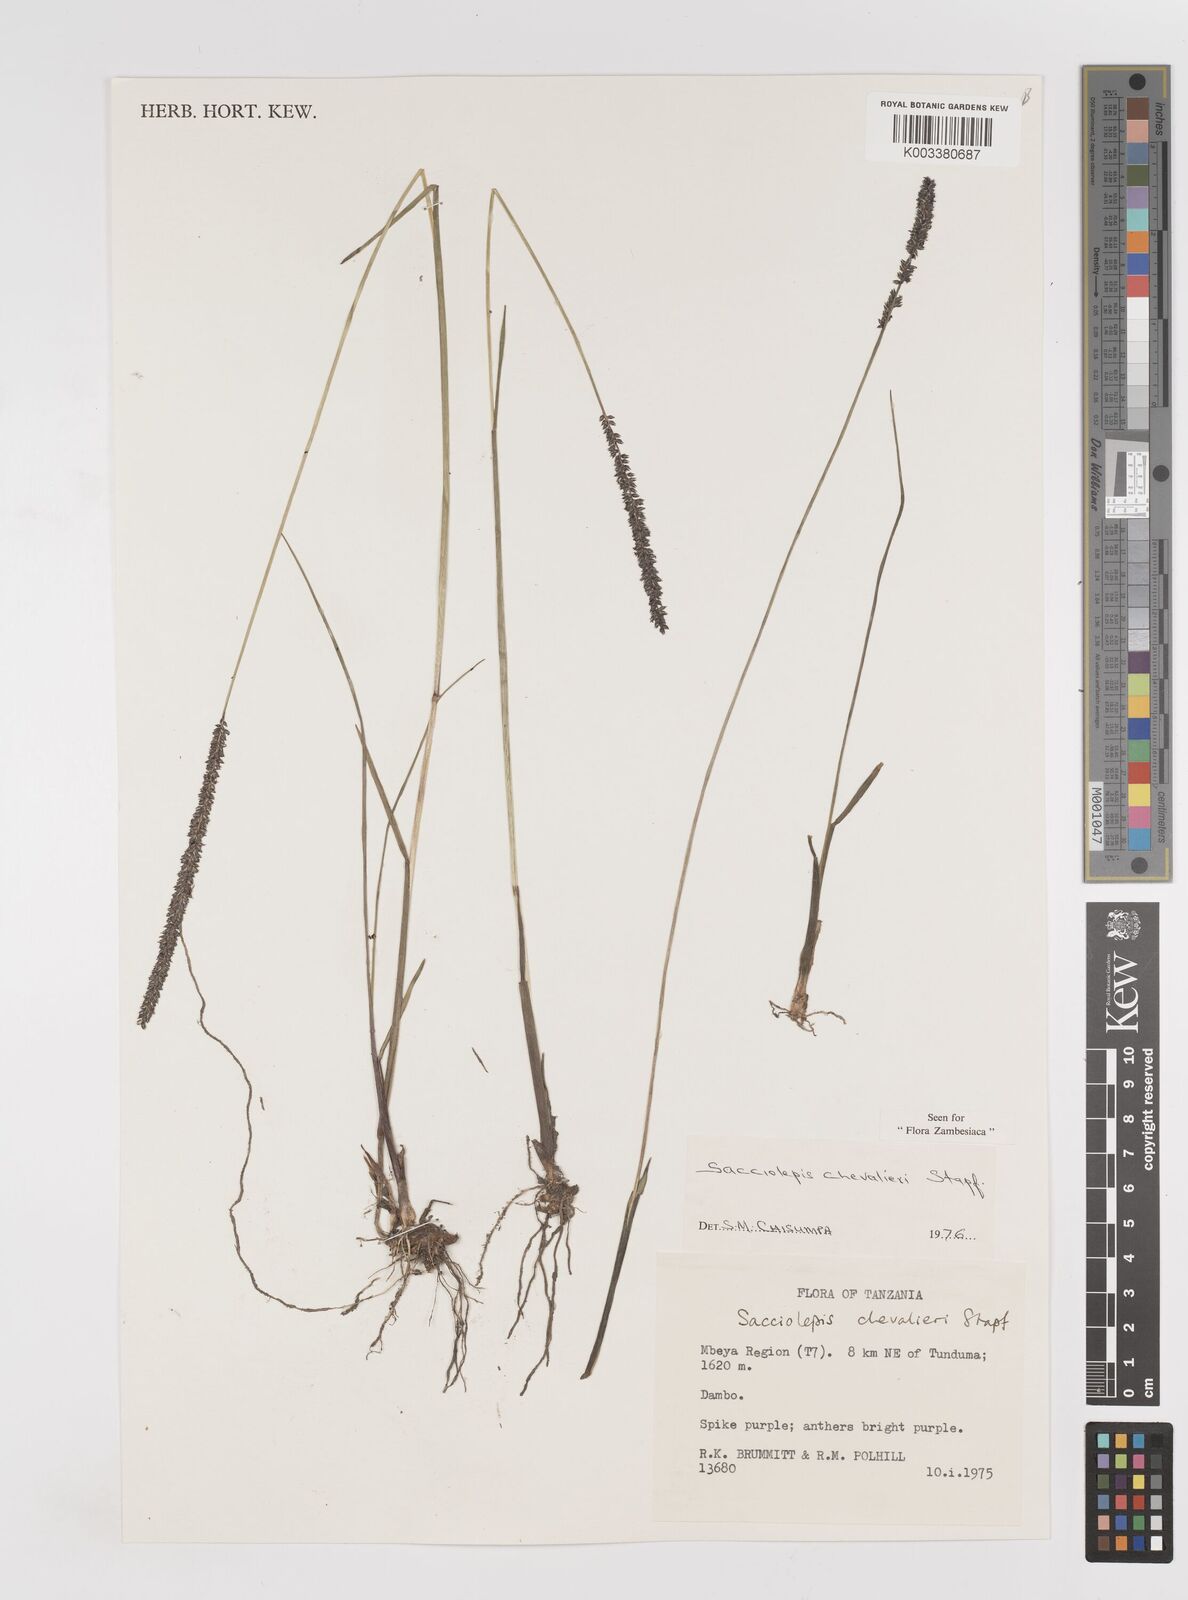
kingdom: Plantae
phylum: Tracheophyta
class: Liliopsida
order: Poales
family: Poaceae
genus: Sacciolepis
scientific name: Sacciolepis chevalieri
